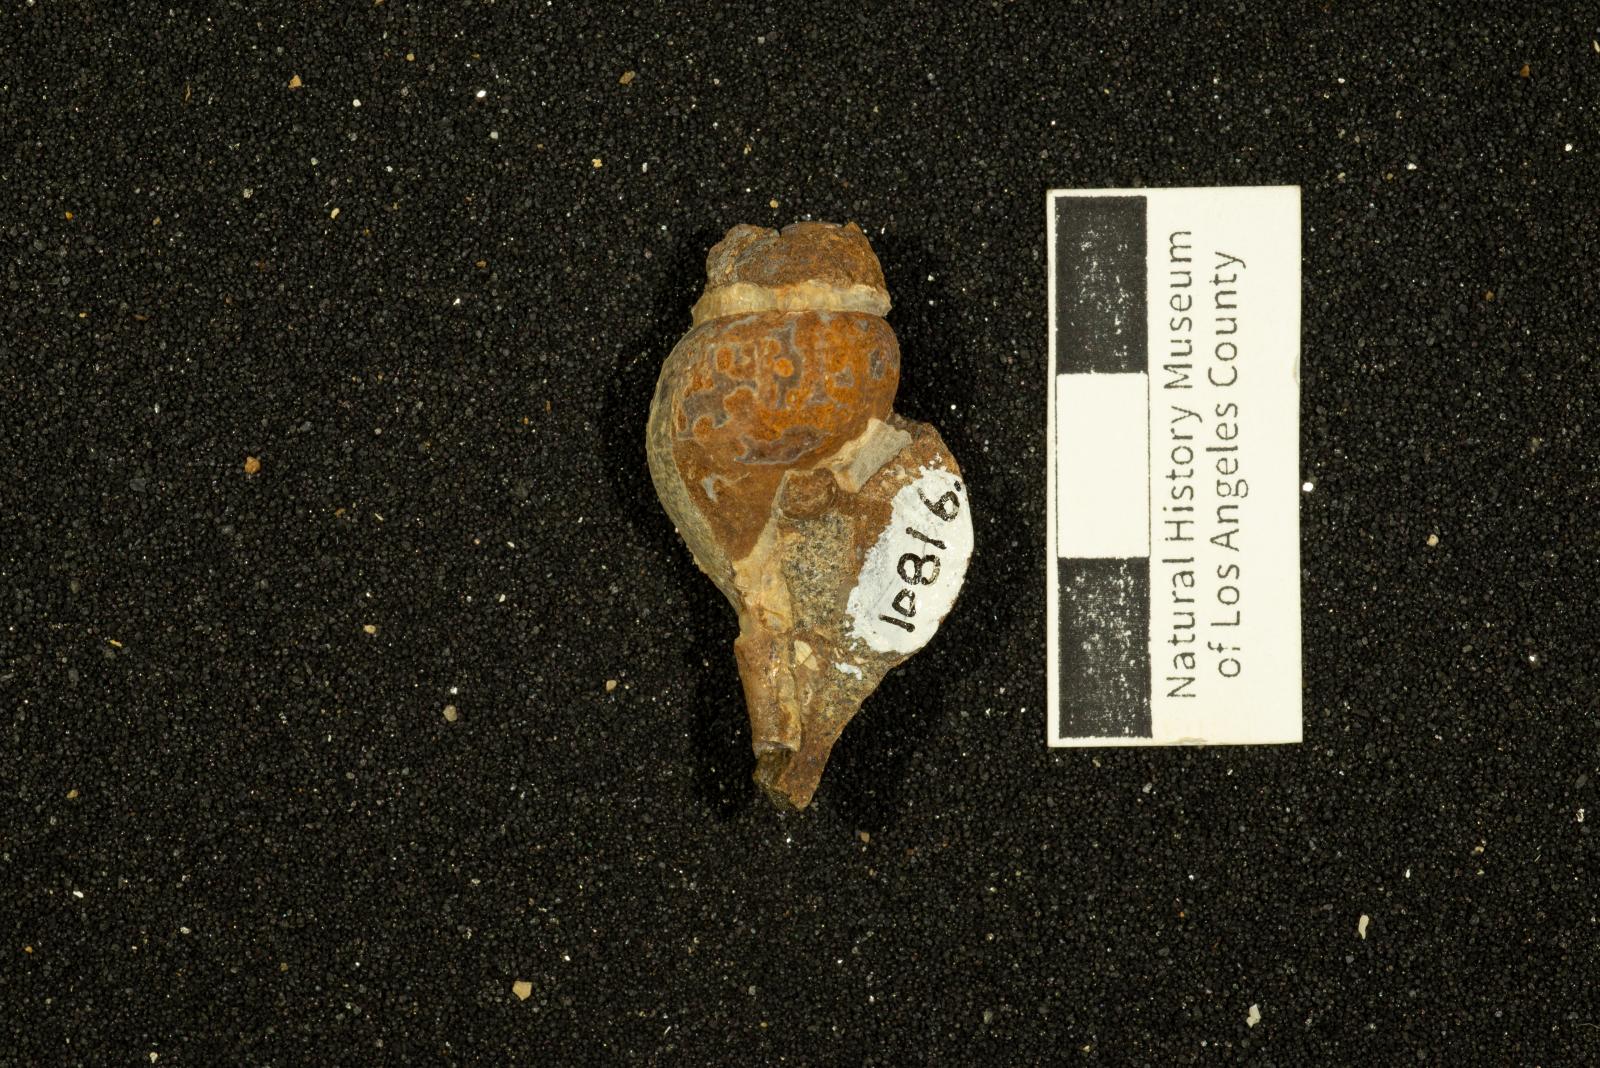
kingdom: Animalia
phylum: Mollusca
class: Gastropoda
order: Neogastropoda
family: Fasciolariidae
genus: Micasarcina
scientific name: Micasarcina vallis
